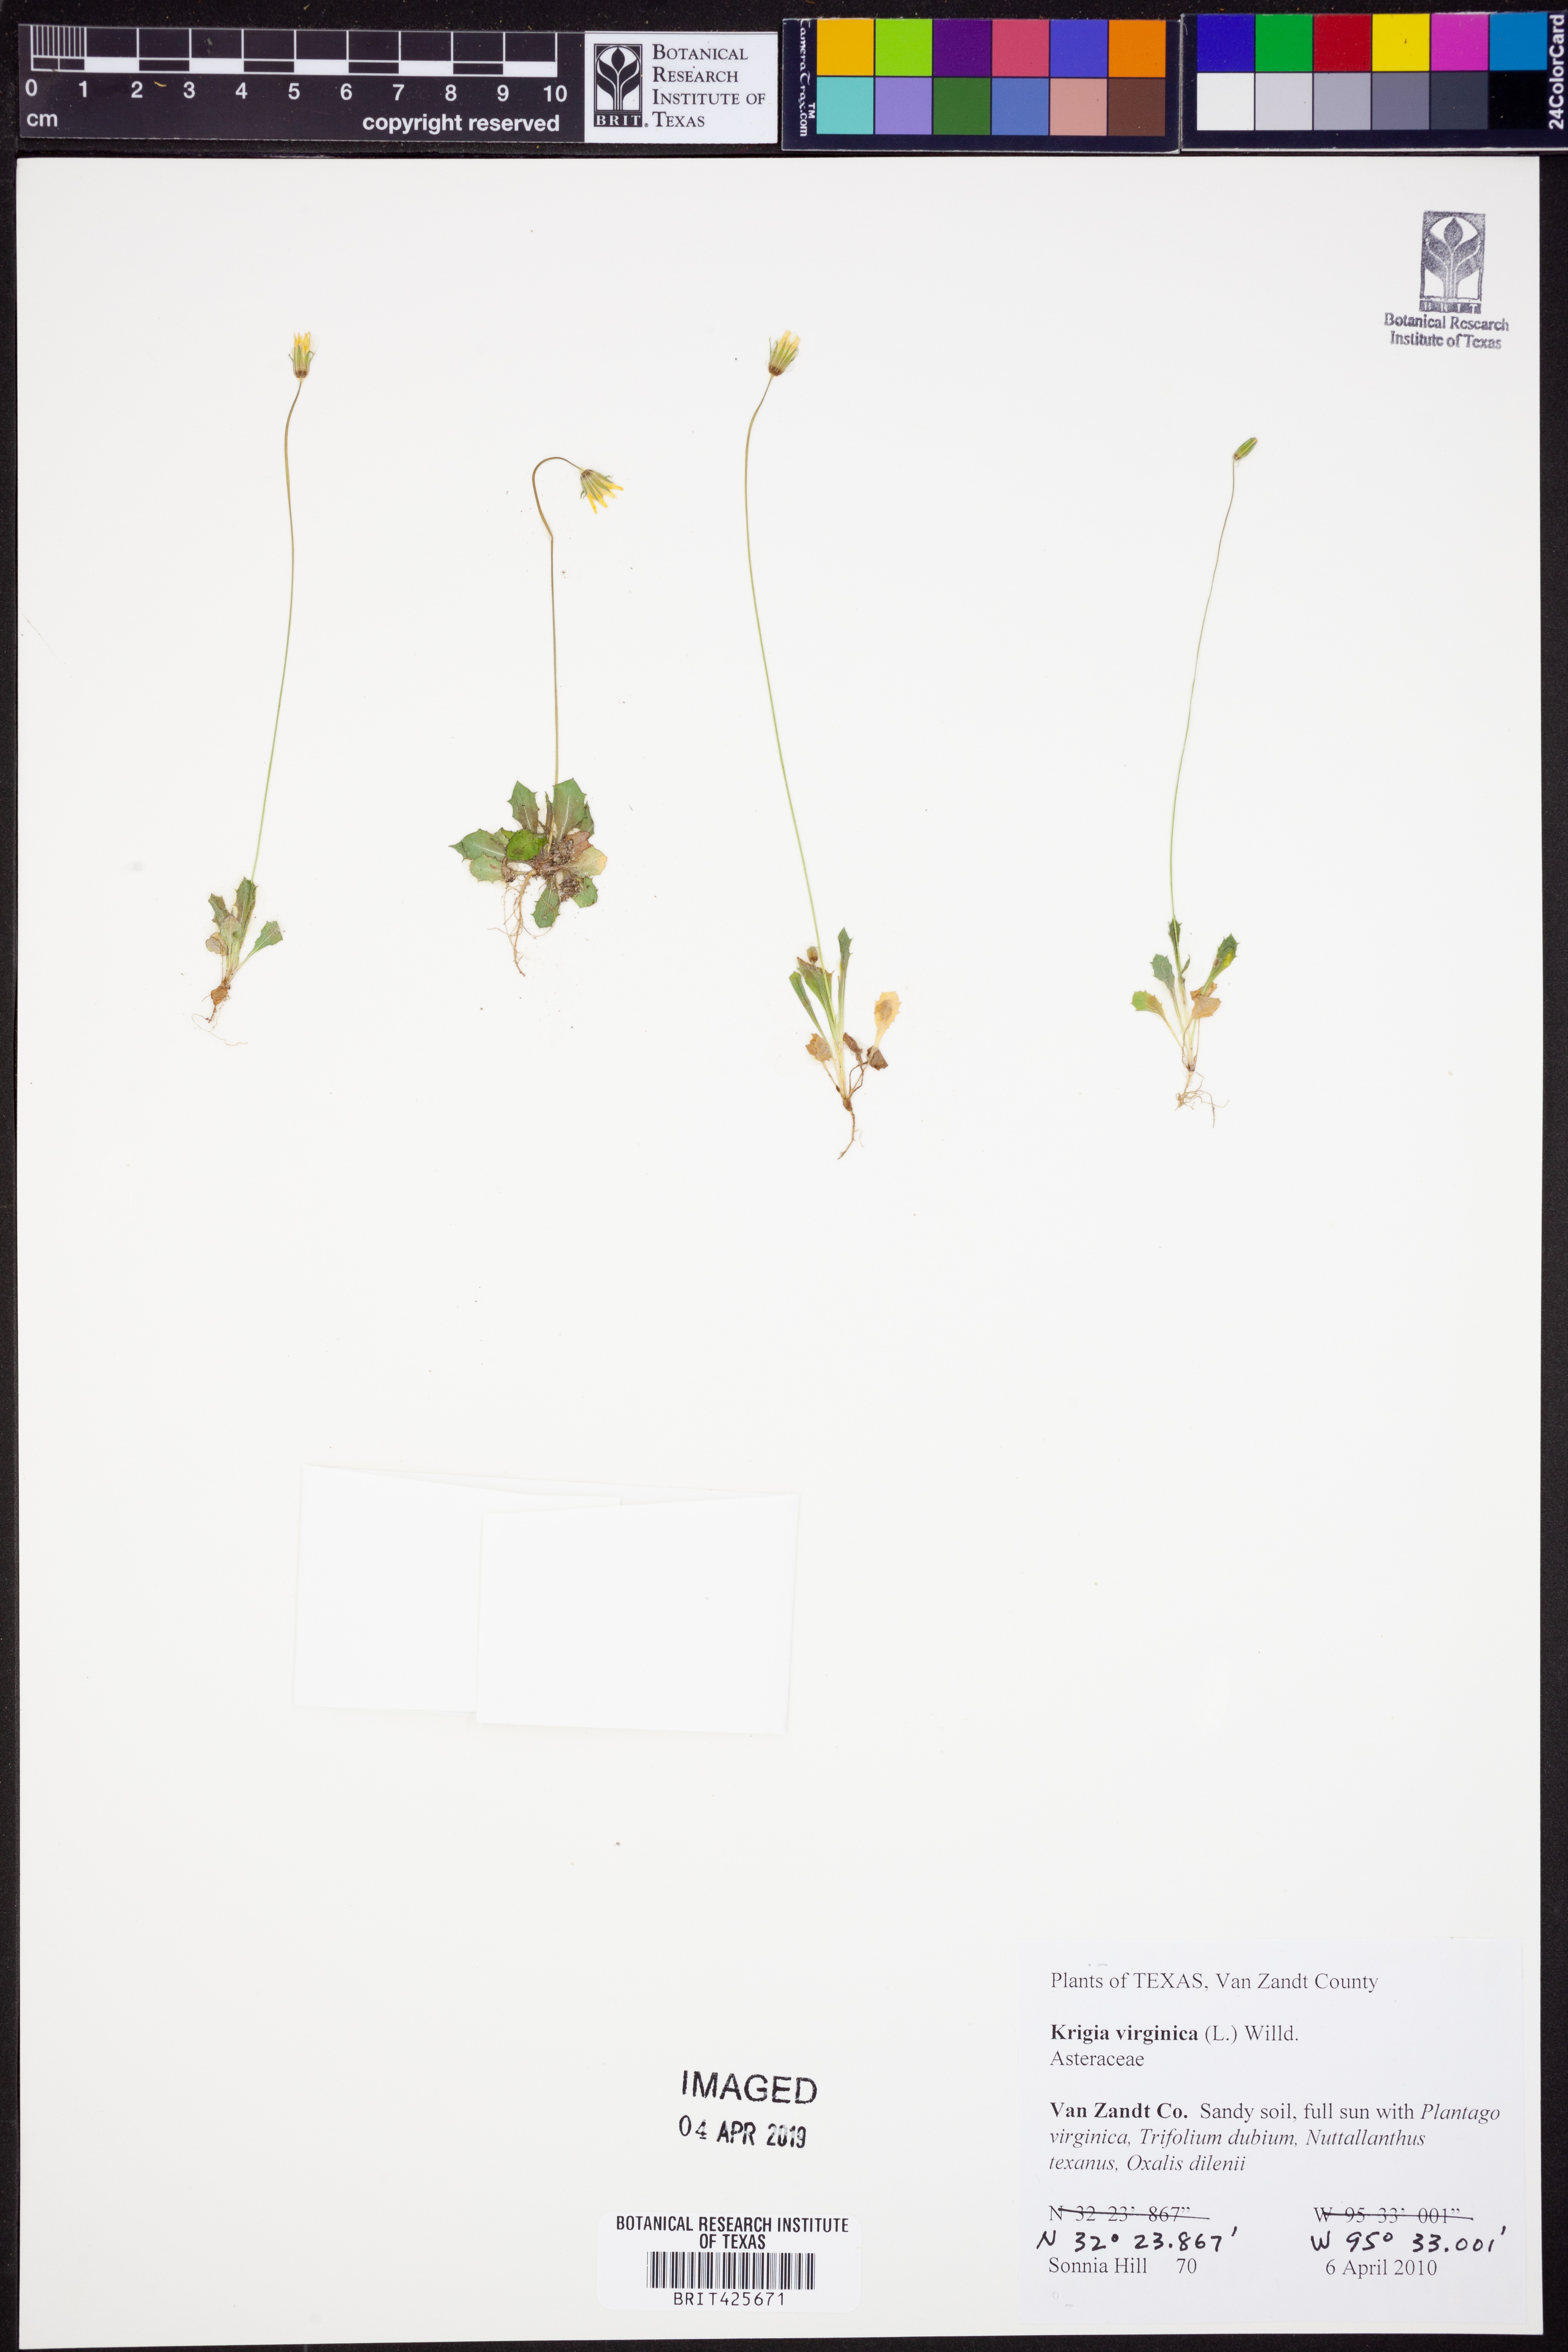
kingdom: Plantae
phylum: Tracheophyta
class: Magnoliopsida
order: Asterales
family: Asteraceae
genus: Krigia
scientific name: Krigia virginica
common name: Virginia dwarf-dandelion
